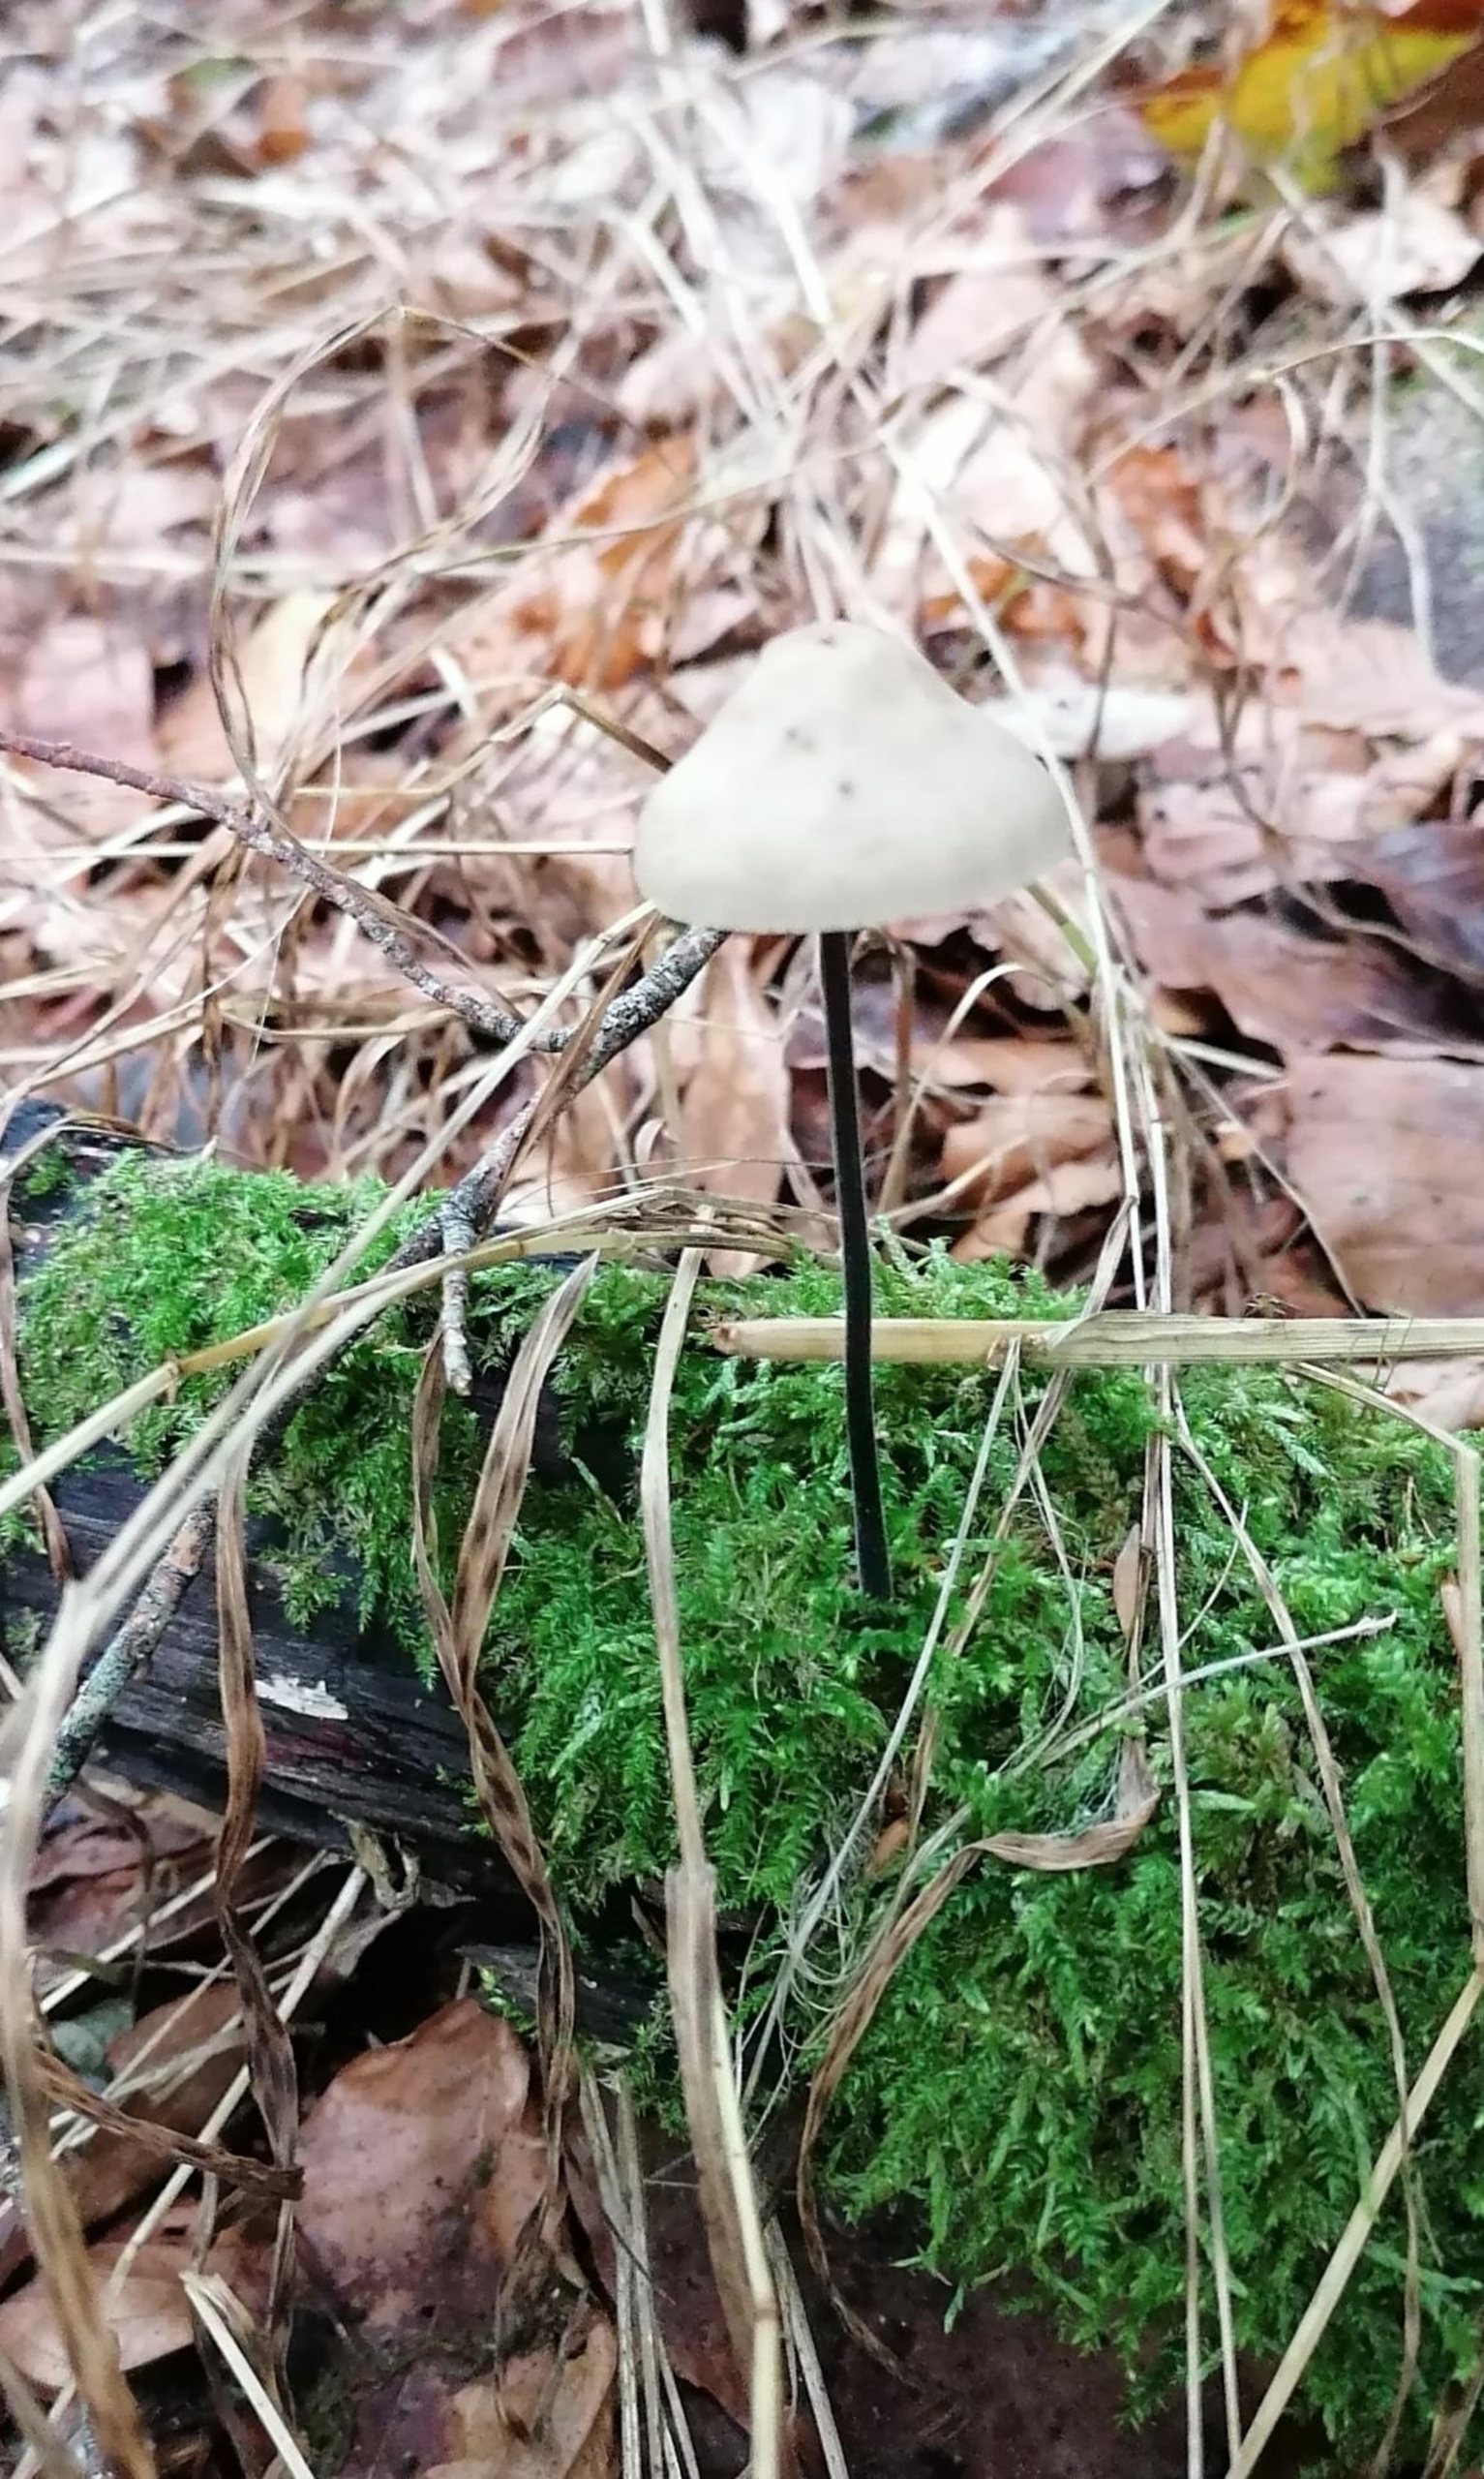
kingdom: Fungi
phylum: Basidiomycota
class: Agaricomycetes
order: Agaricales
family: Omphalotaceae
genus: Mycetinis
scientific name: Mycetinis alliaceus
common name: Stor løghat
